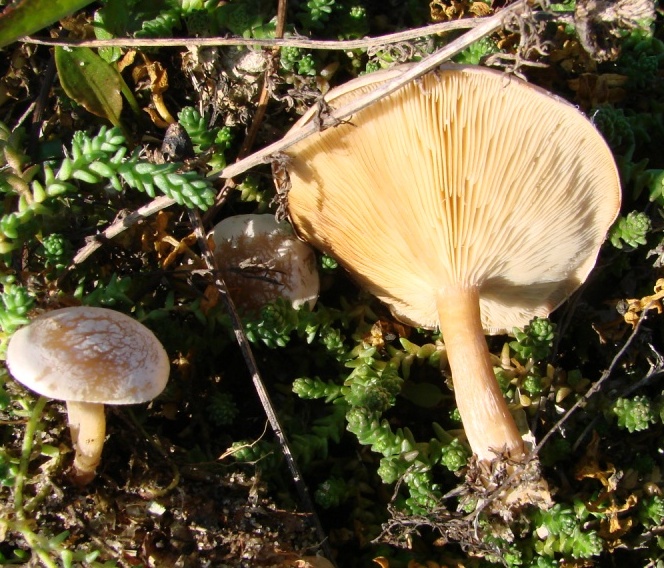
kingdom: Fungi
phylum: Basidiomycota
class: Agaricomycetes
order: Agaricales
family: Tricholomataceae
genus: Clitocybe
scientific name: Clitocybe rivulosa
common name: eng-tragthat
